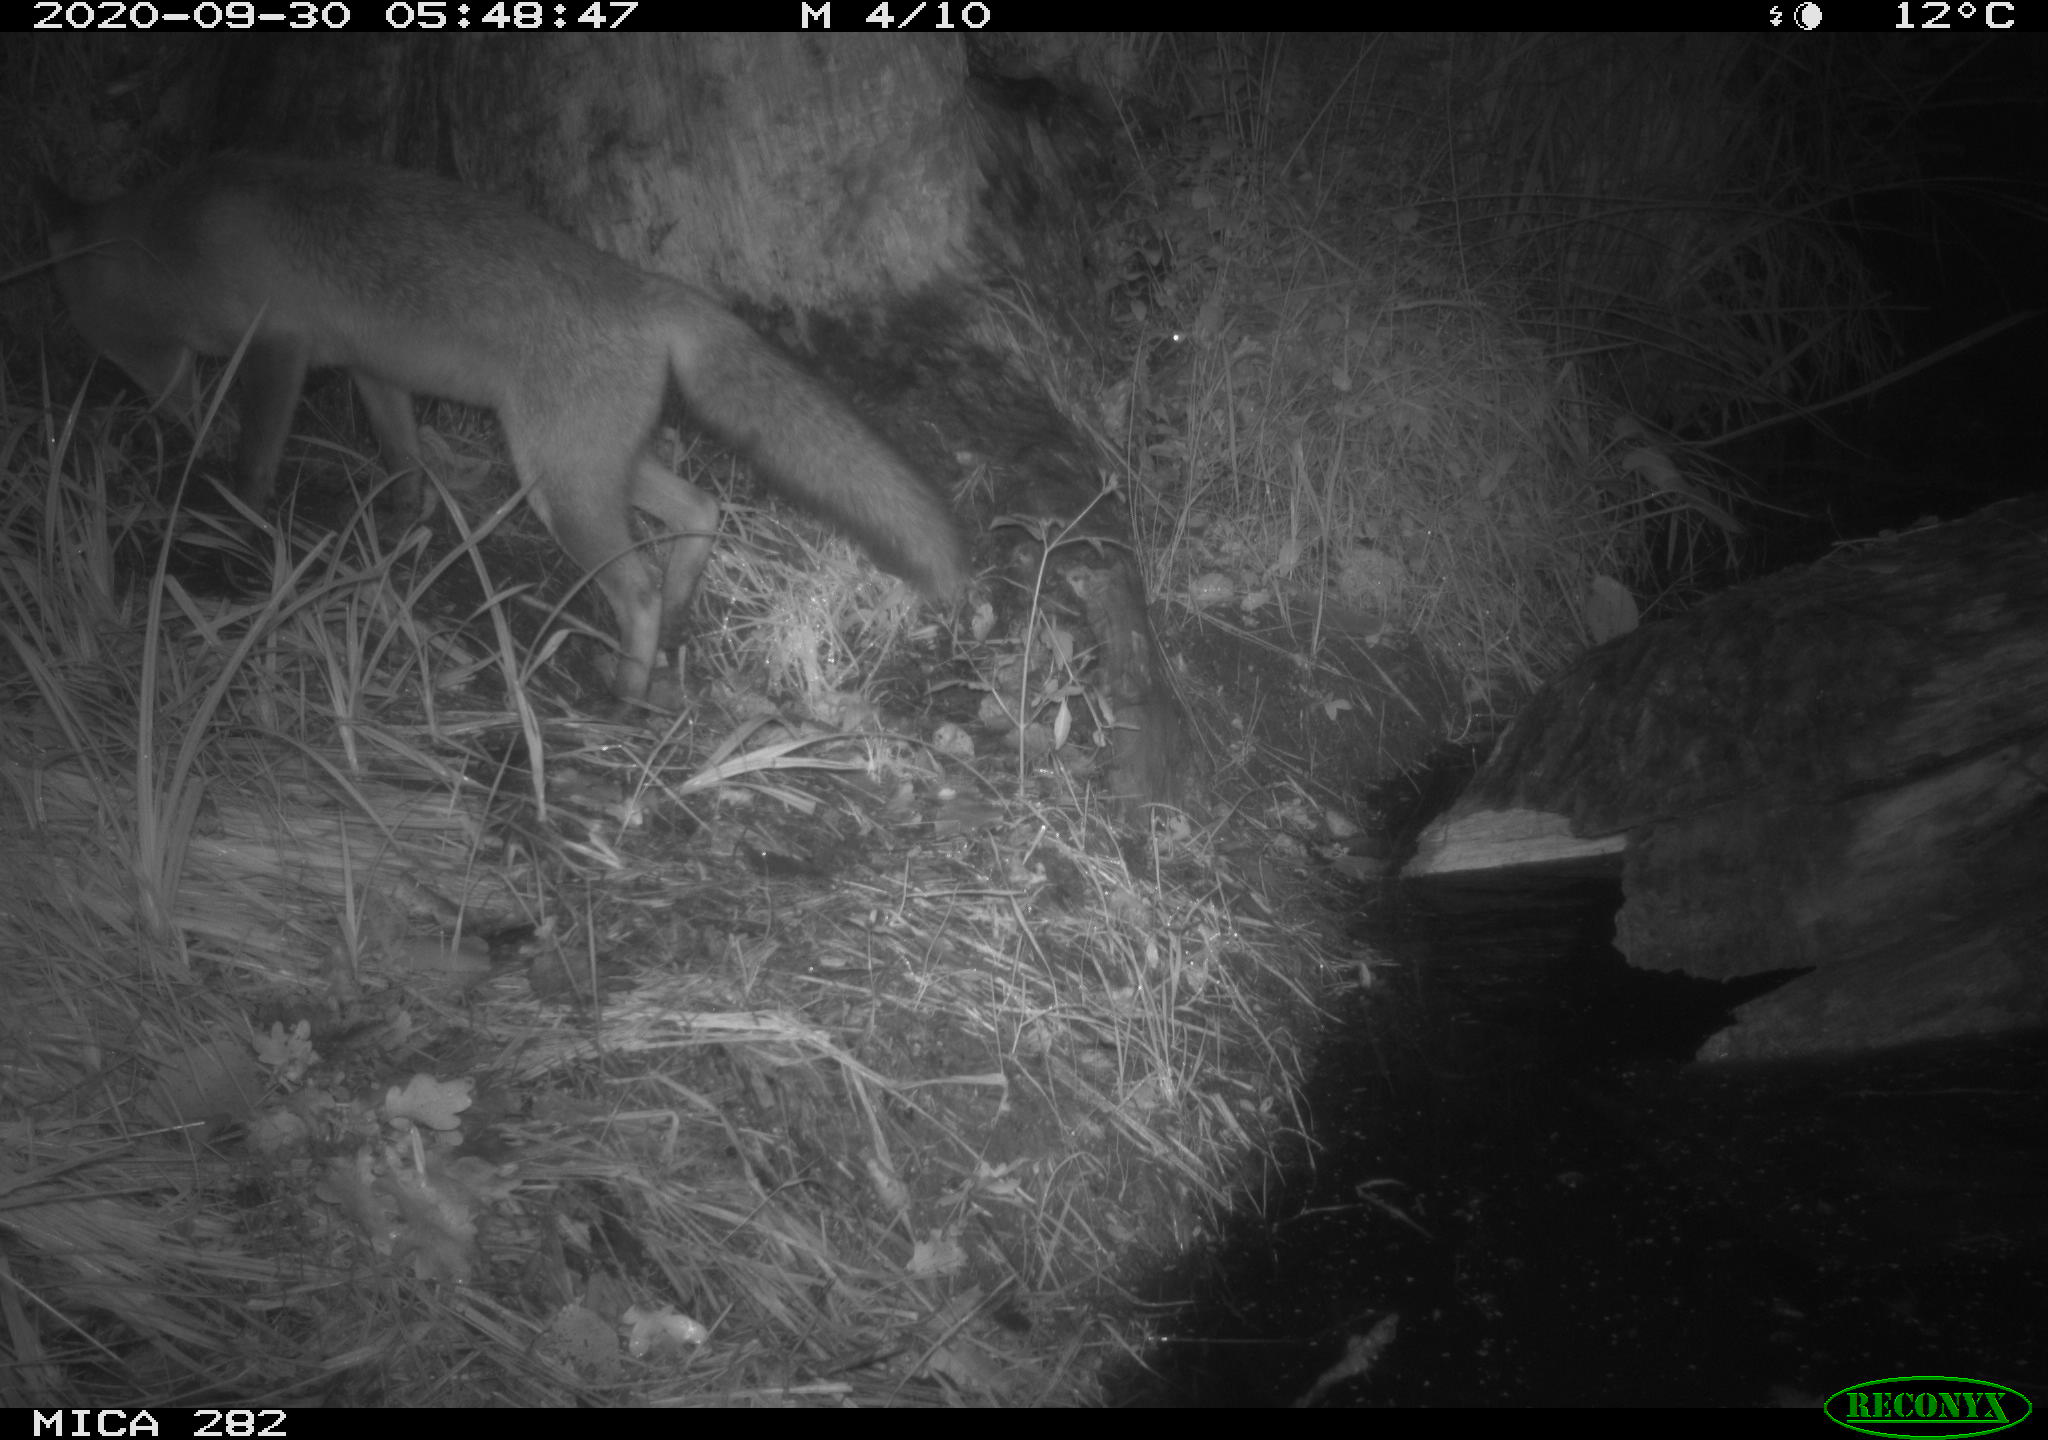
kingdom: Animalia
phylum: Chordata
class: Mammalia
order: Carnivora
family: Canidae
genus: Vulpes
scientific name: Vulpes vulpes
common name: Red fox
